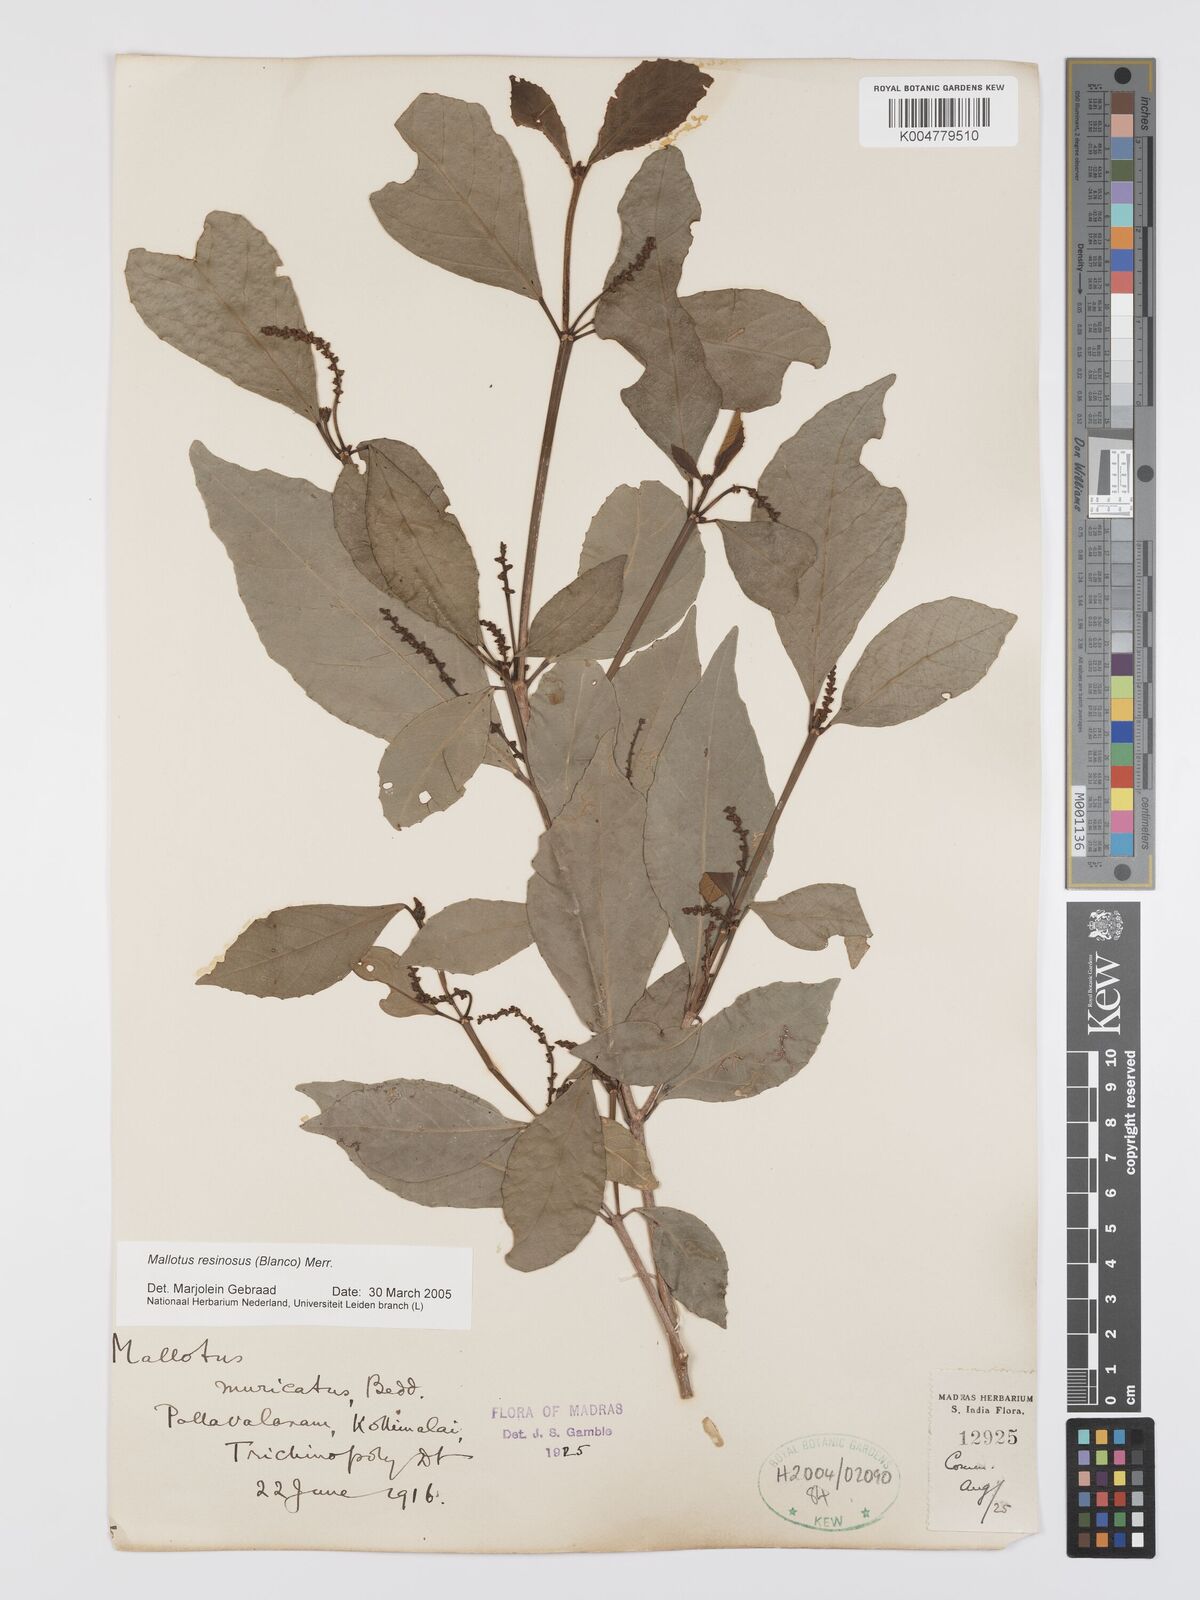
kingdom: Plantae
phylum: Tracheophyta
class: Magnoliopsida
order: Malpighiales
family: Euphorbiaceae
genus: Mallotus
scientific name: Mallotus resinosus
